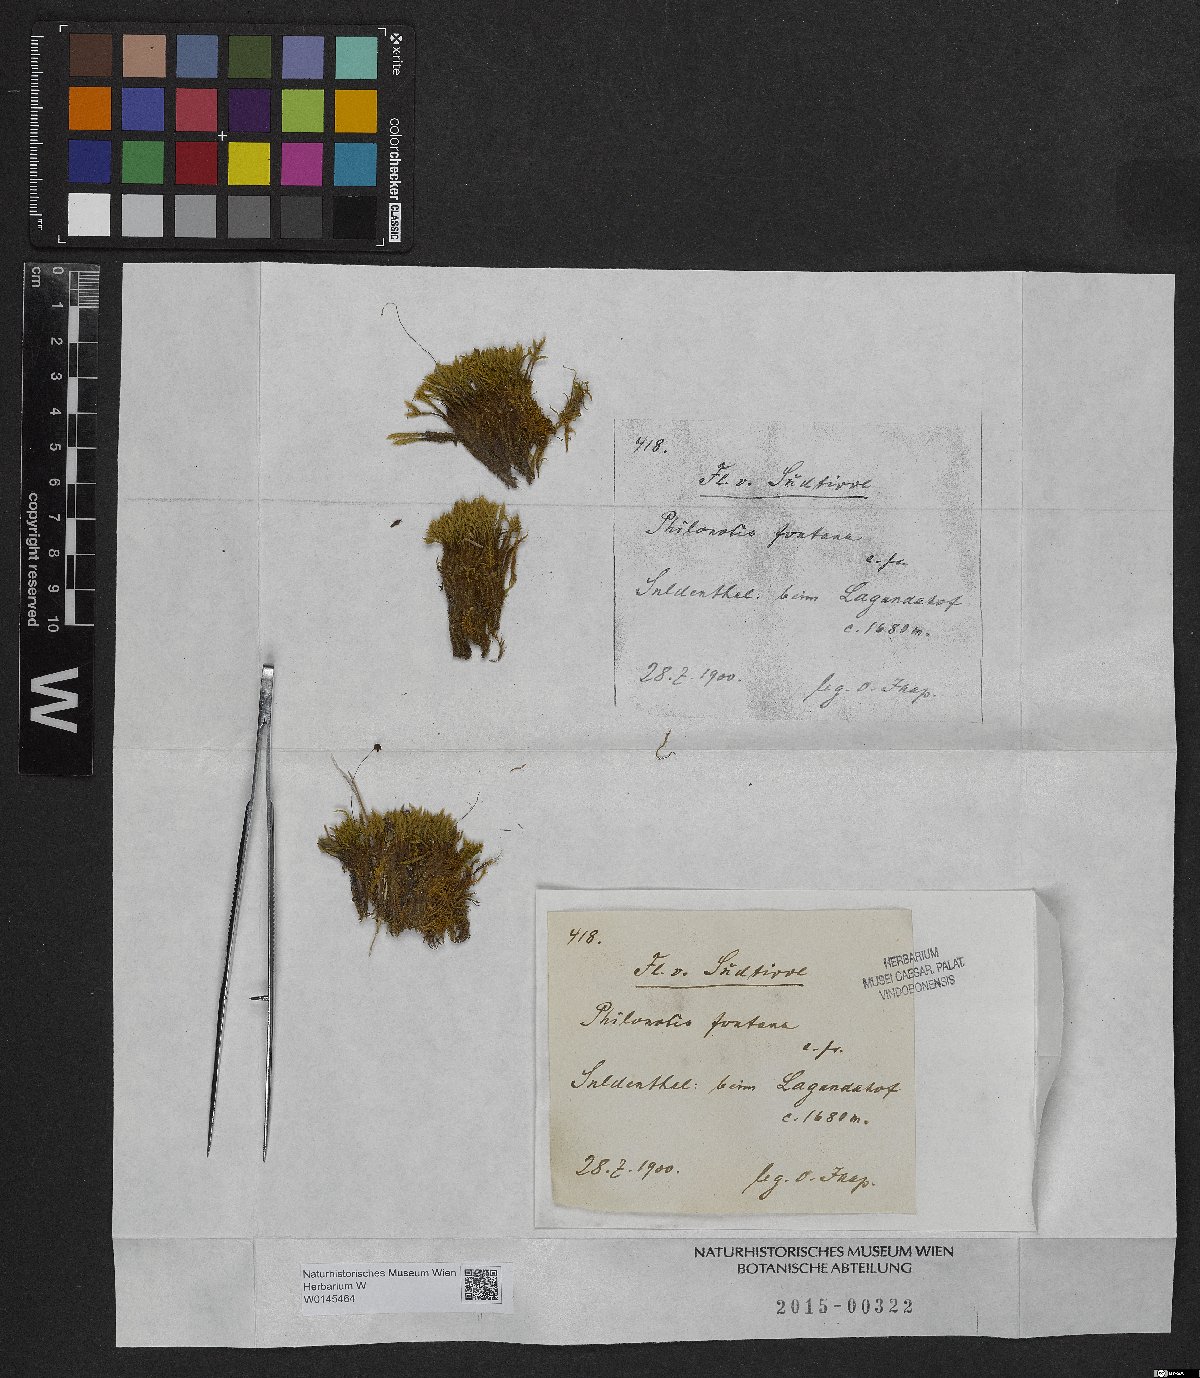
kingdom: Plantae
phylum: Bryophyta
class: Bryopsida
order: Bartramiales
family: Bartramiaceae
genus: Philonotis
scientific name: Philonotis fontana
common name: Fountain apple-moss
